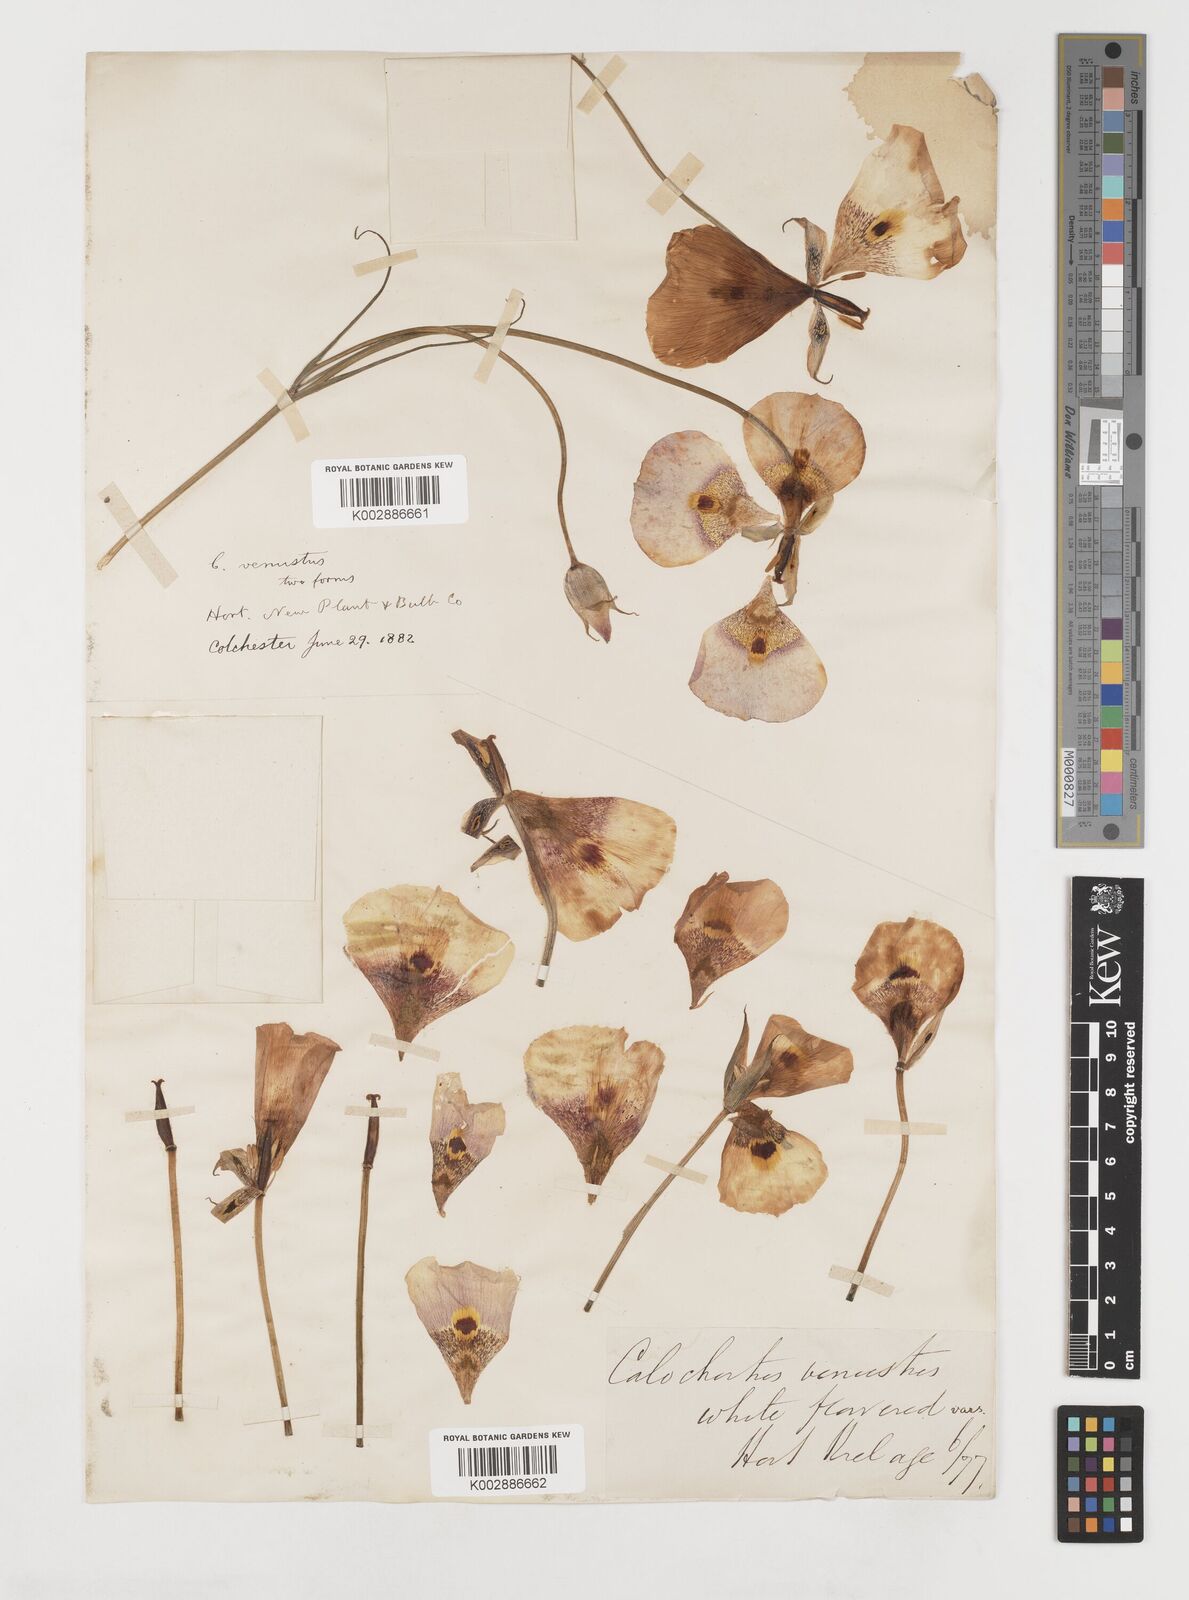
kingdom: Plantae
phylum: Tracheophyta
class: Liliopsida
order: Liliales
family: Liliaceae
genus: Calochortus
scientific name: Calochortus venustus
